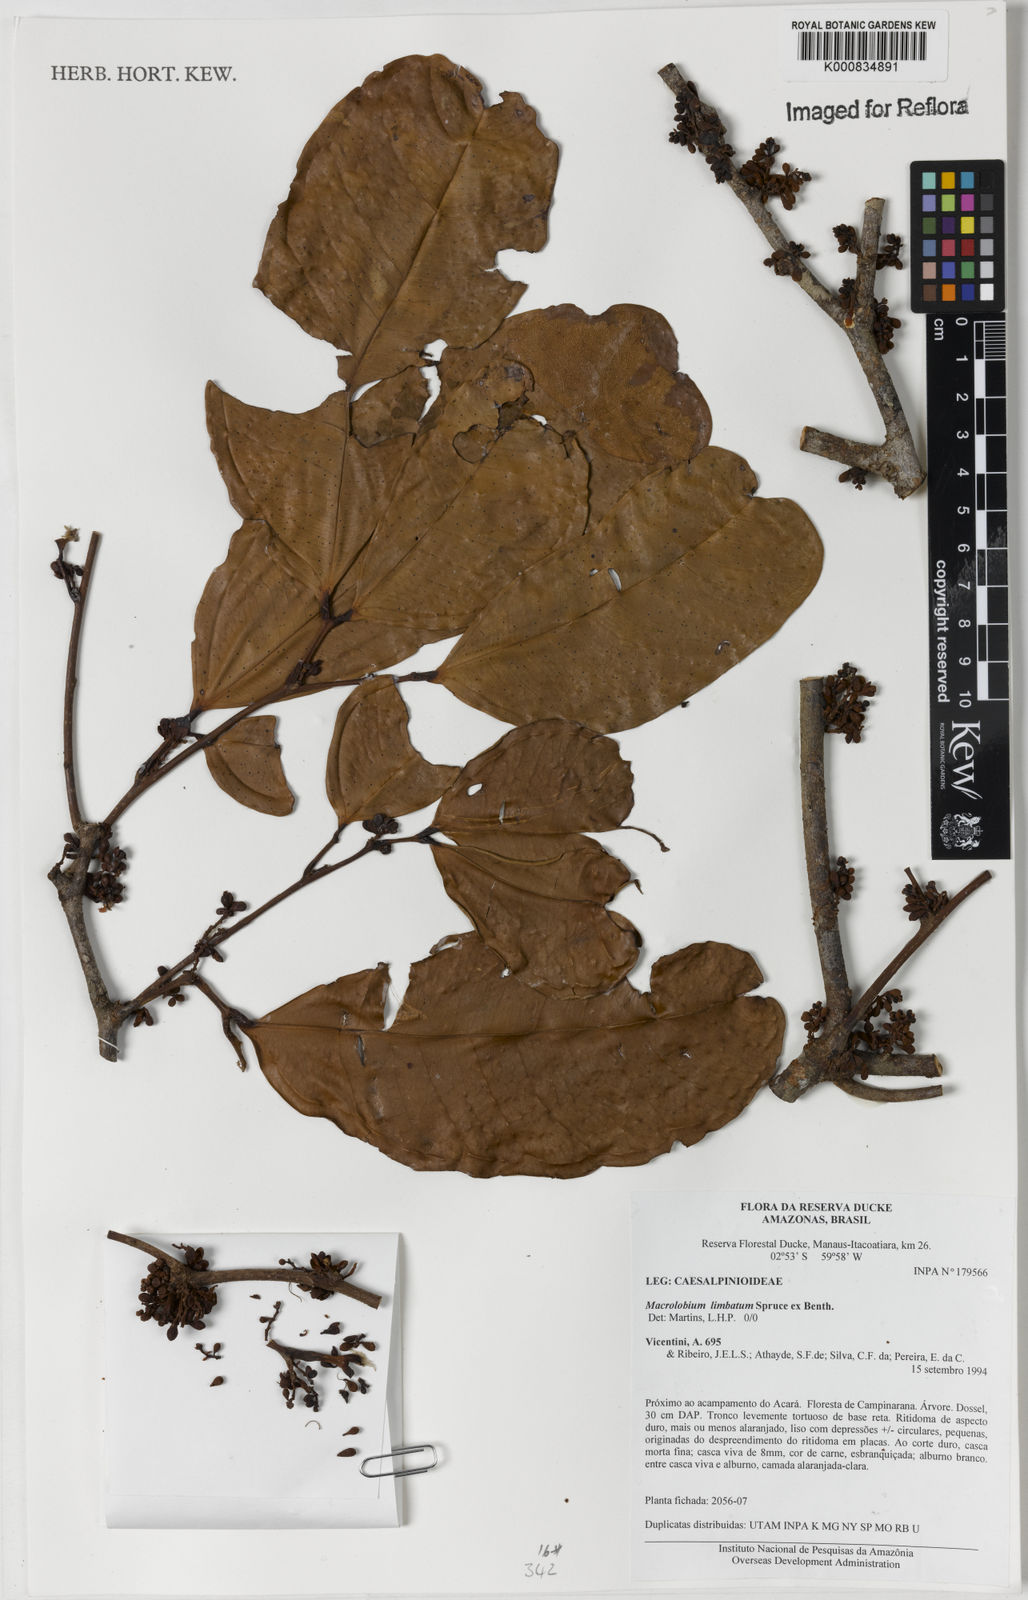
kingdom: Plantae
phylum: Tracheophyta
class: Magnoliopsida
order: Fabales
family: Fabaceae
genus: Macrolobium
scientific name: Macrolobium limbatum
